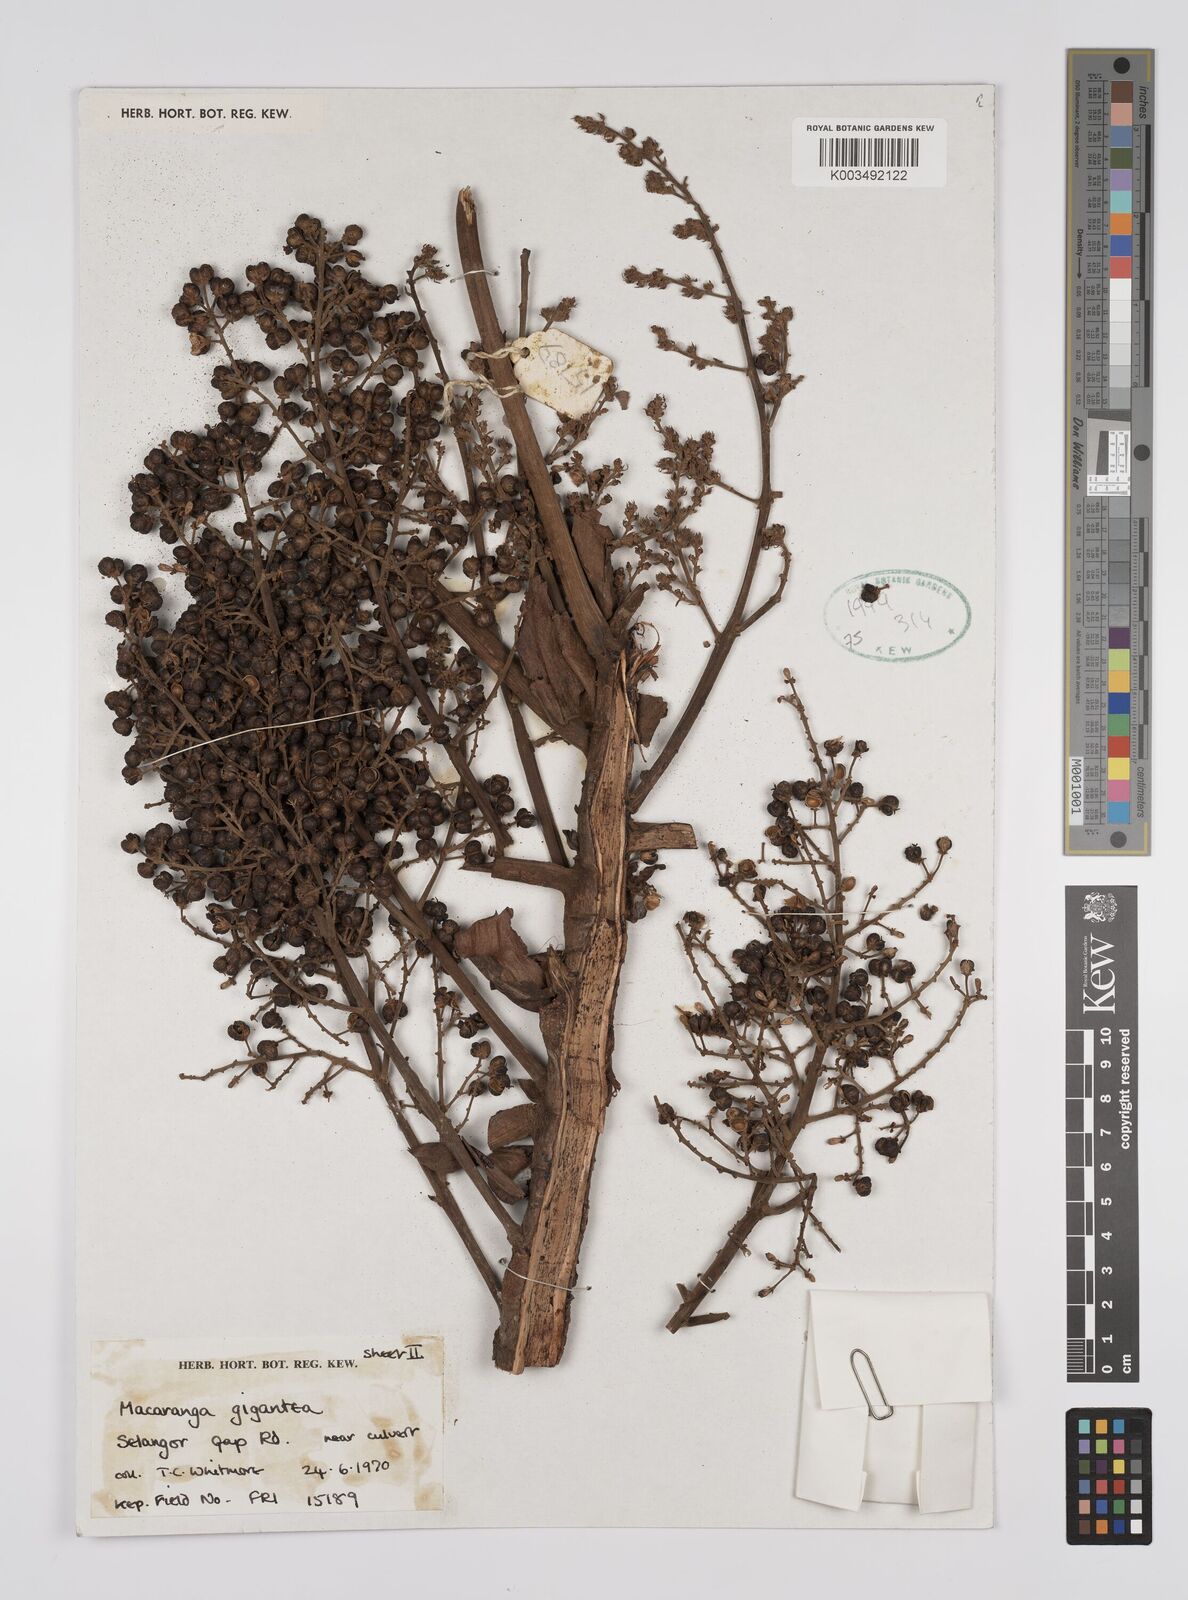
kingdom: Plantae
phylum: Tracheophyta
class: Magnoliopsida
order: Malpighiales
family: Euphorbiaceae
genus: Macaranga
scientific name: Macaranga gigantea
